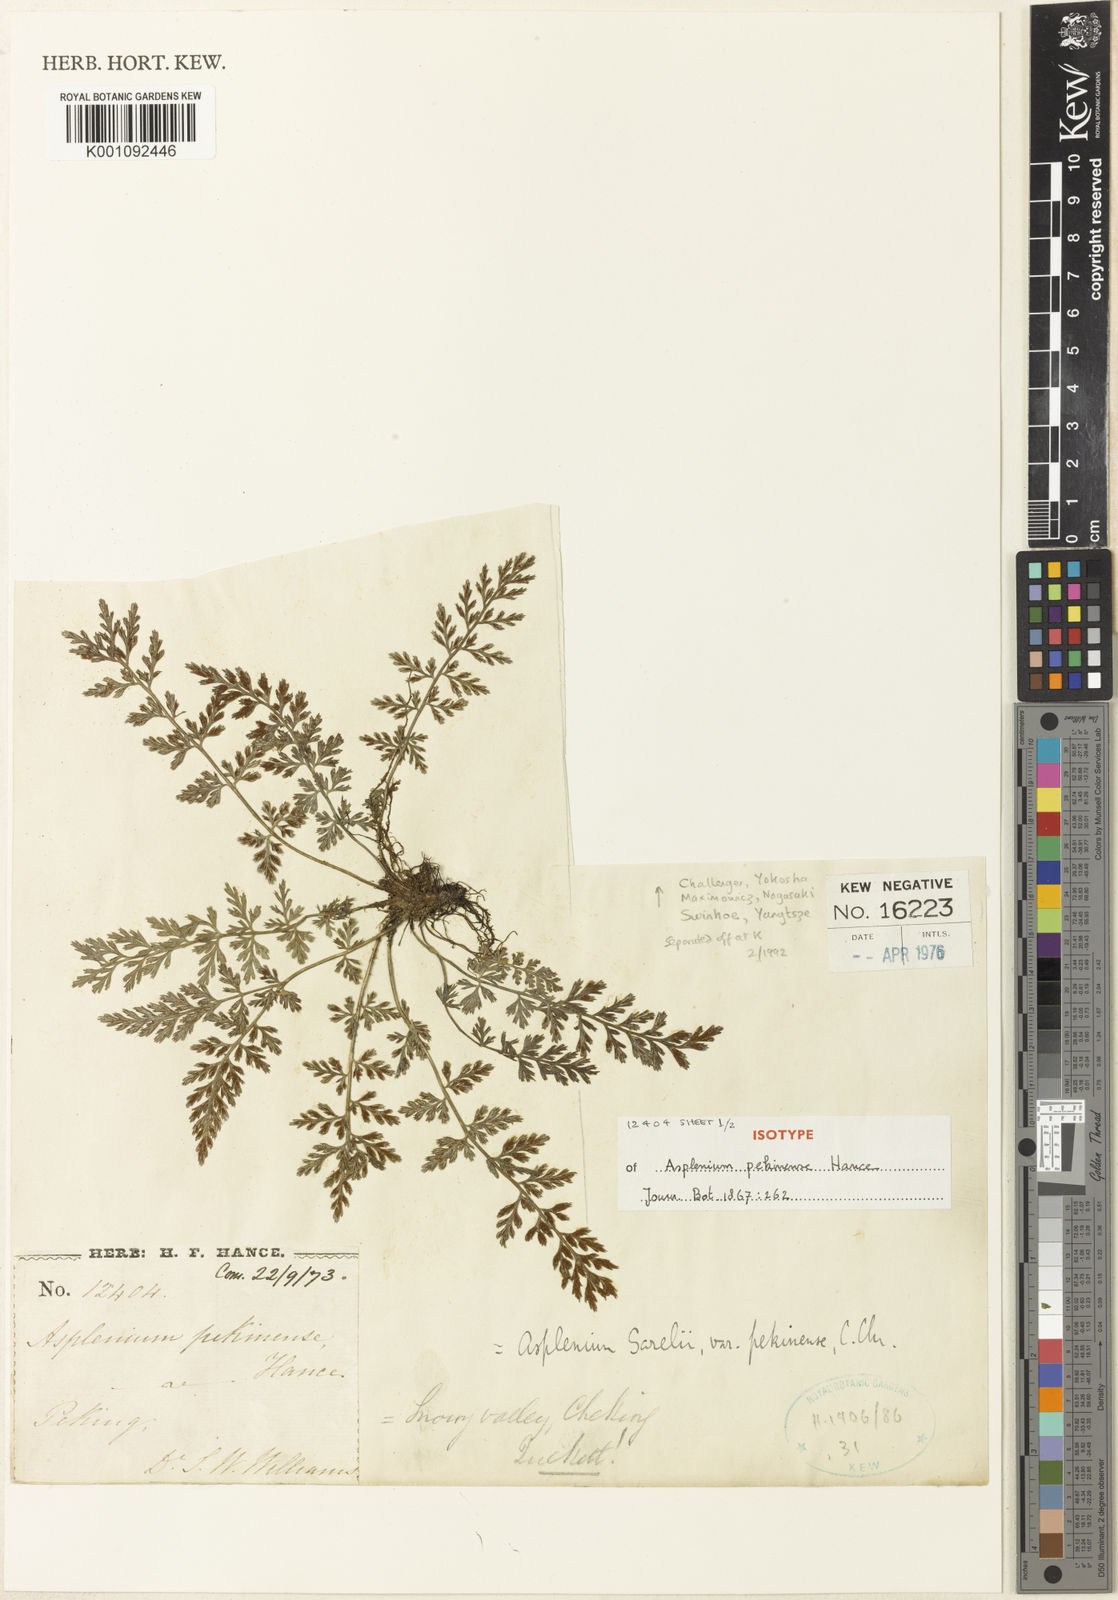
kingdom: Plantae
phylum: Tracheophyta
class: Polypodiopsida
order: Polypodiales
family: Aspleniaceae
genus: Asplenium
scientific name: Asplenium sarelii
